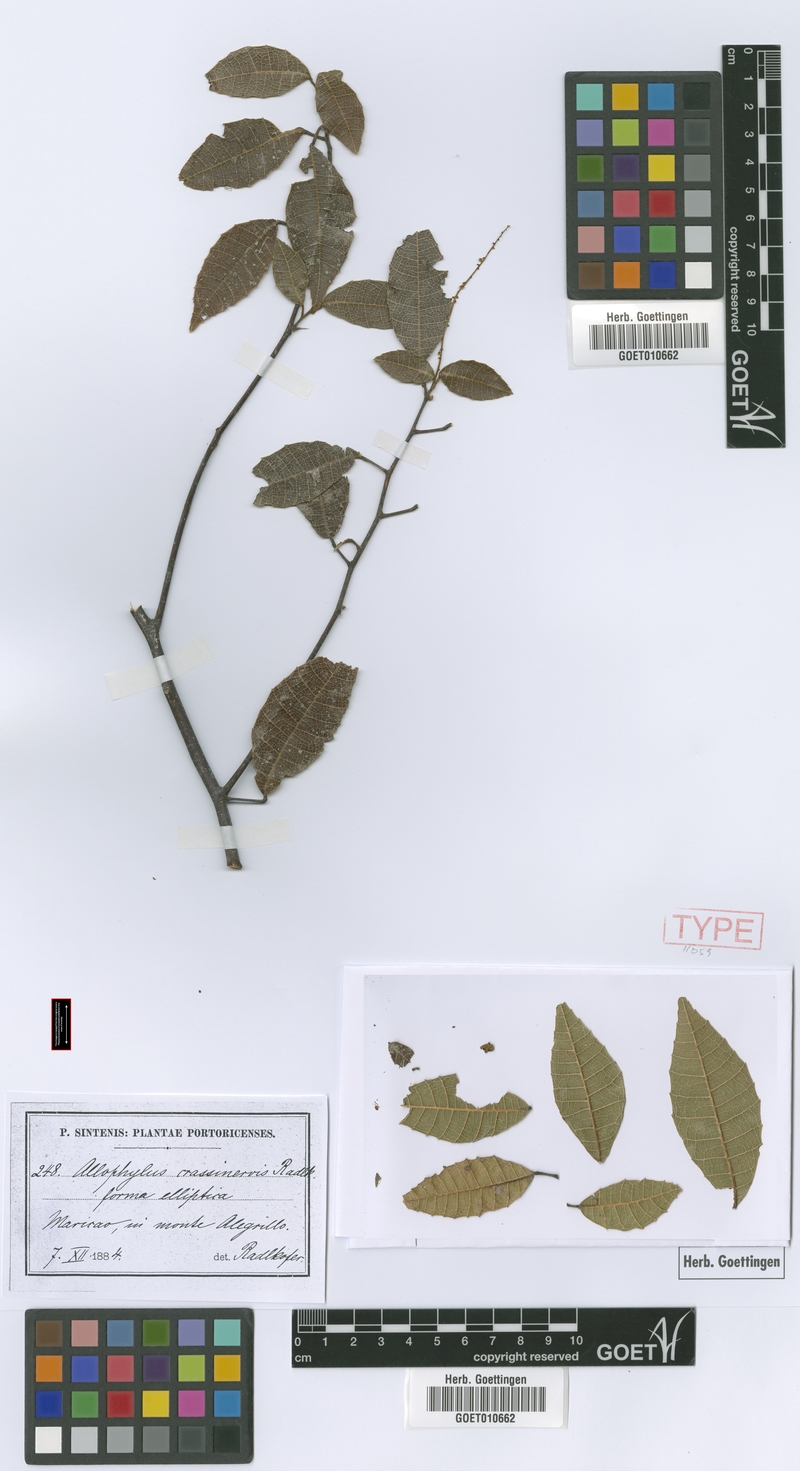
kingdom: Plantae
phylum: Tracheophyta
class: Magnoliopsida
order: Sapindales
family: Sapindaceae
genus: Allophylus
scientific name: Allophylus crassinervis
